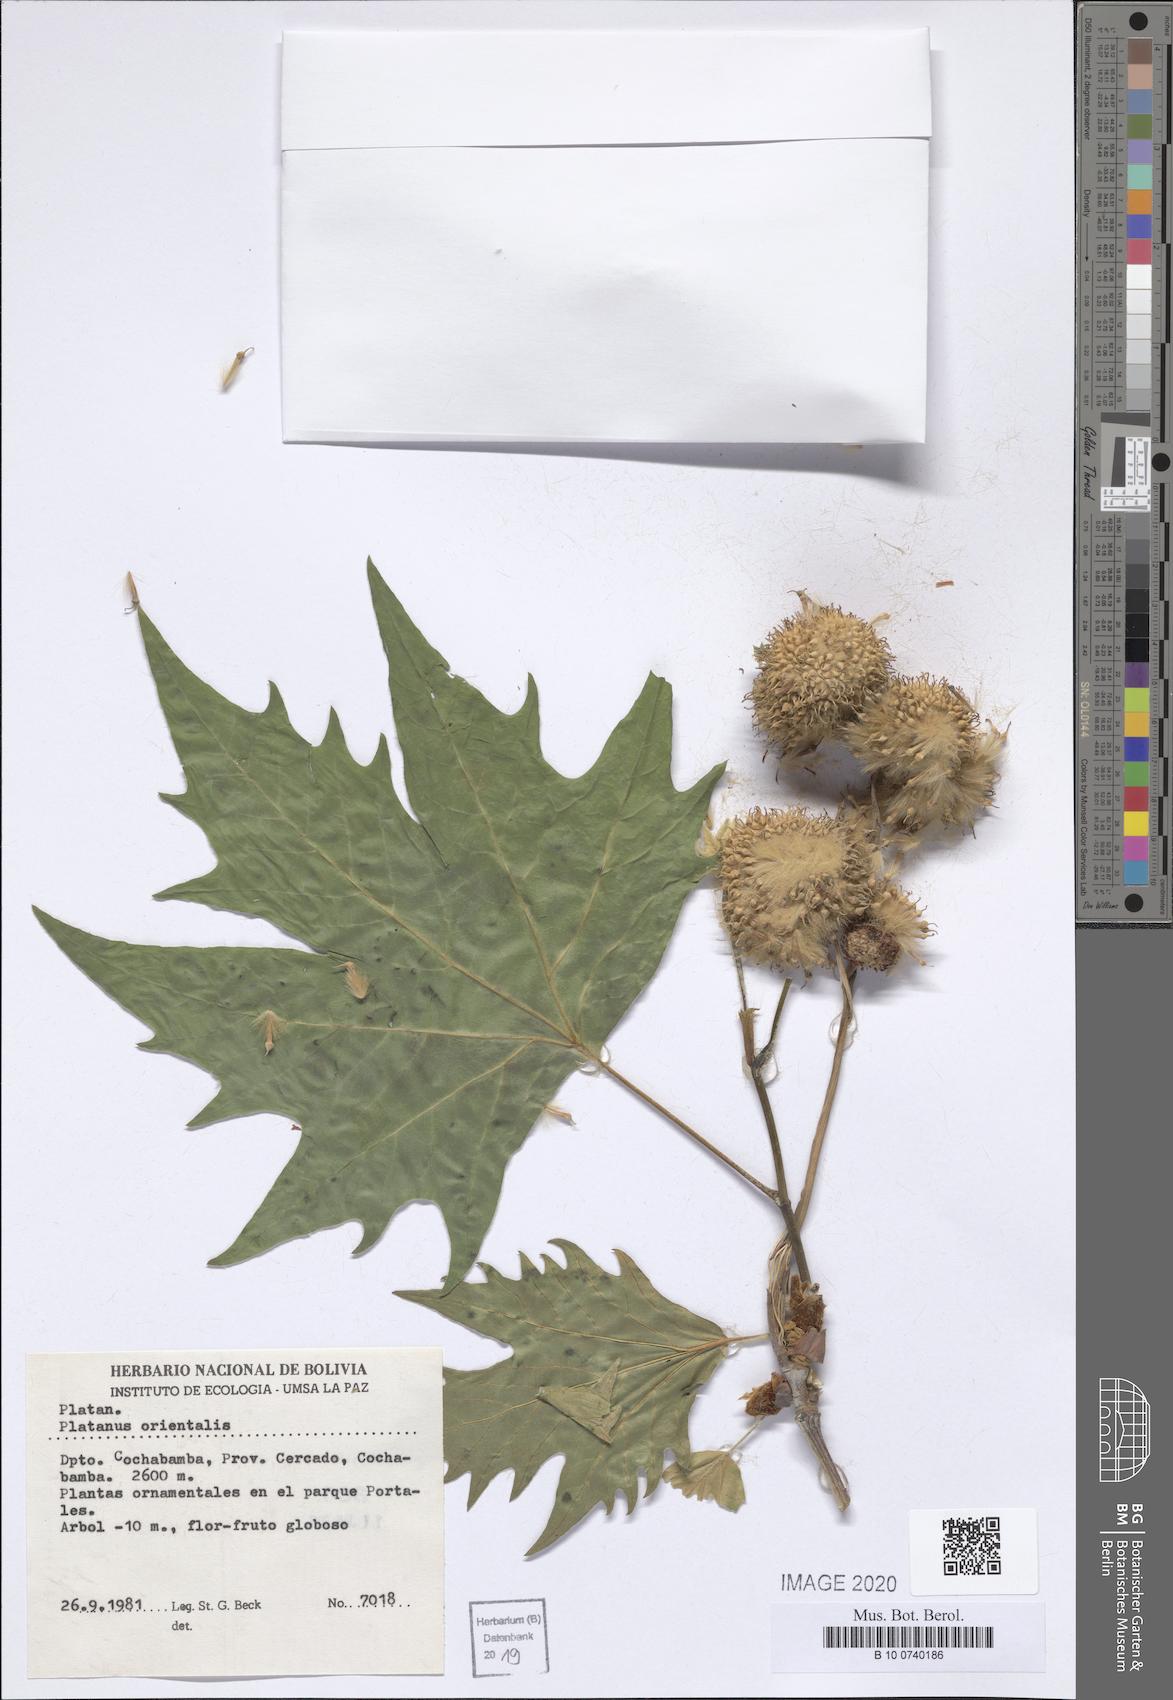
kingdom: Plantae
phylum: Tracheophyta
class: Magnoliopsida
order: Proteales
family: Platanaceae
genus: Platanus
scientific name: Platanus orientalis
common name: Oriental plane
